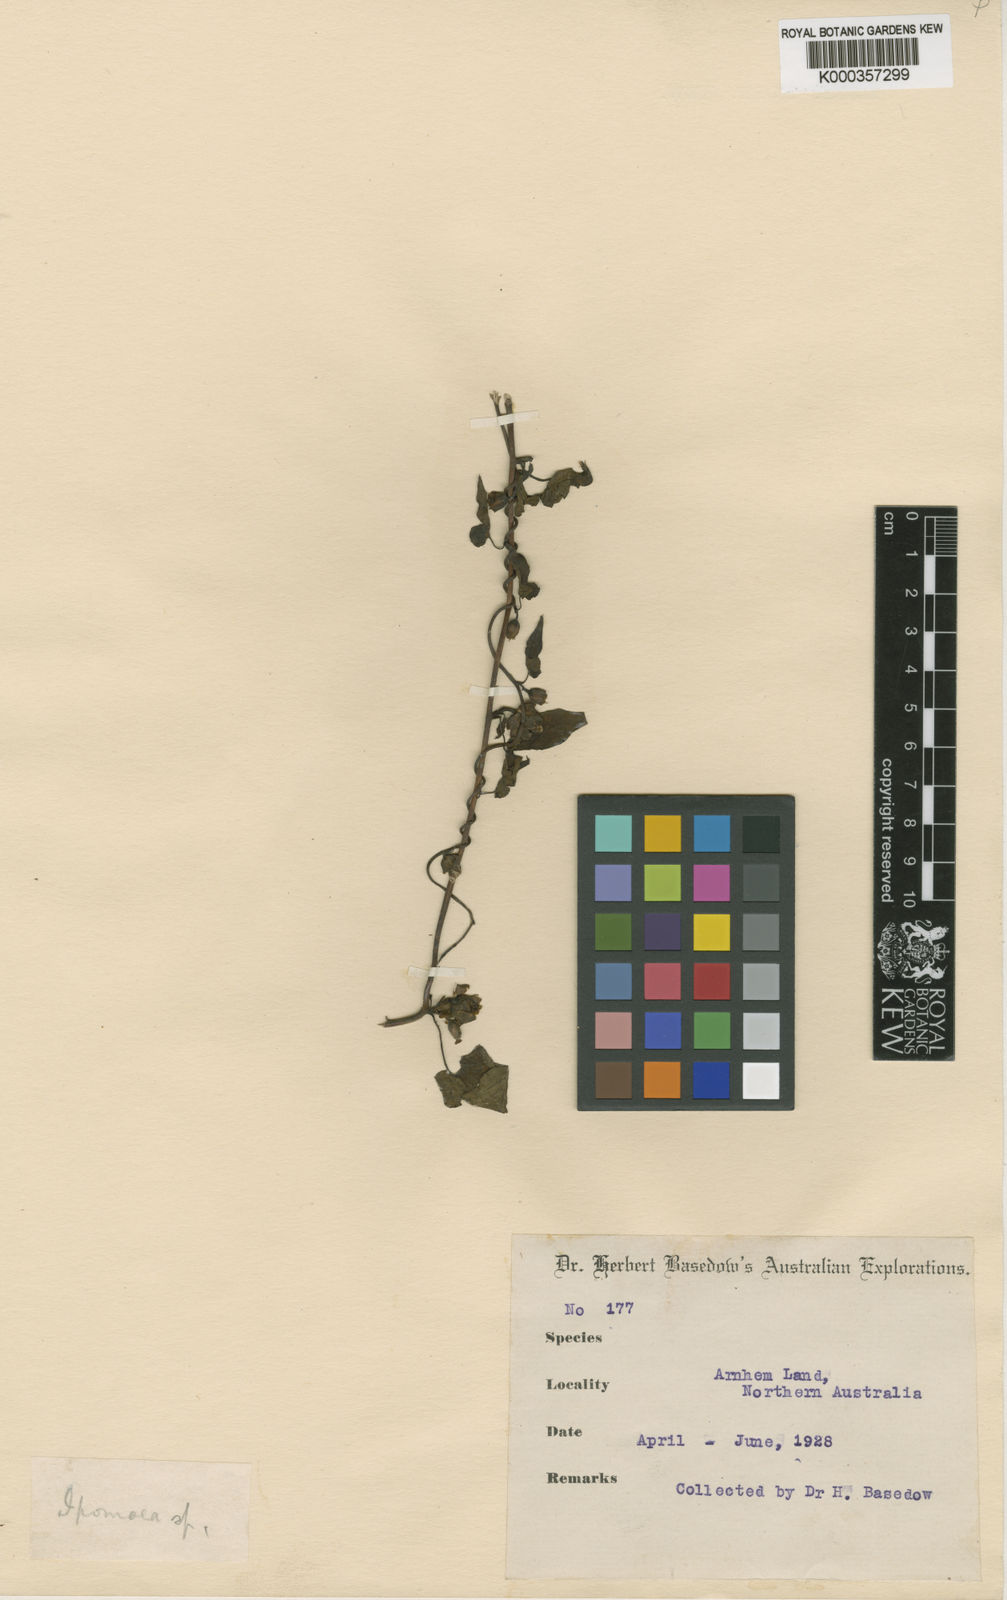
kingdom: Plantae
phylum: Tracheophyta
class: Magnoliopsida
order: Solanales
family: Convolvulaceae
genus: Ipomoea
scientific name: Ipomoea
